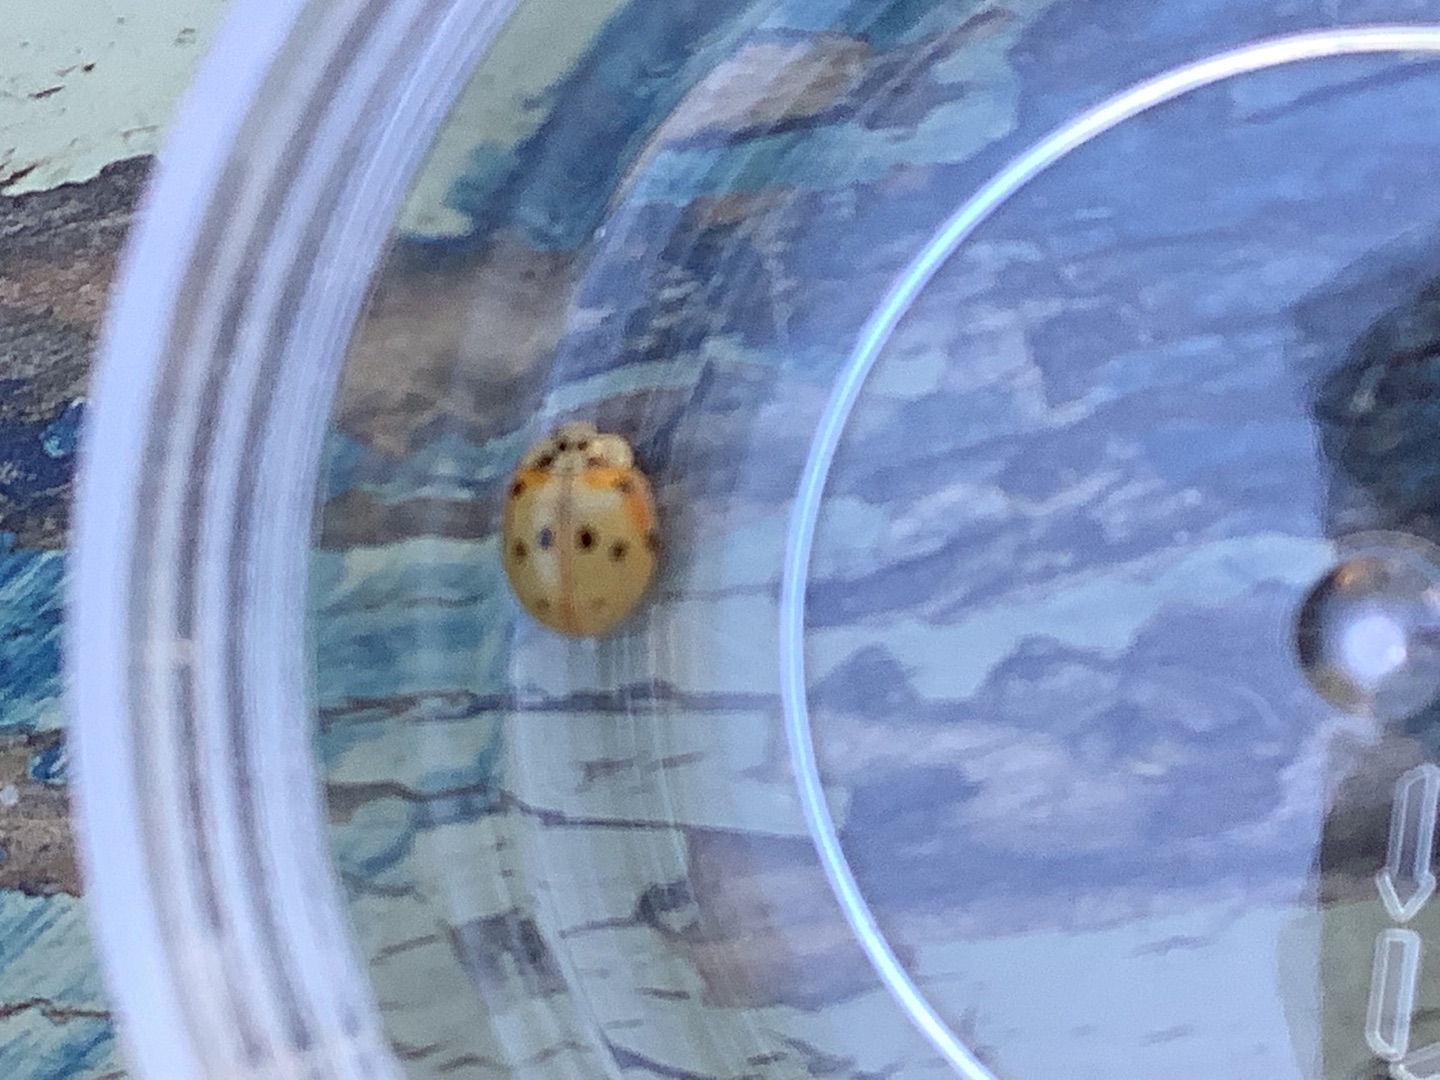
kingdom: Animalia
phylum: Arthropoda
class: Insecta
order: Coleoptera
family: Coccinellidae
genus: Adalia
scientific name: Adalia decempunctata
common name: Tiplettet mariehøne
